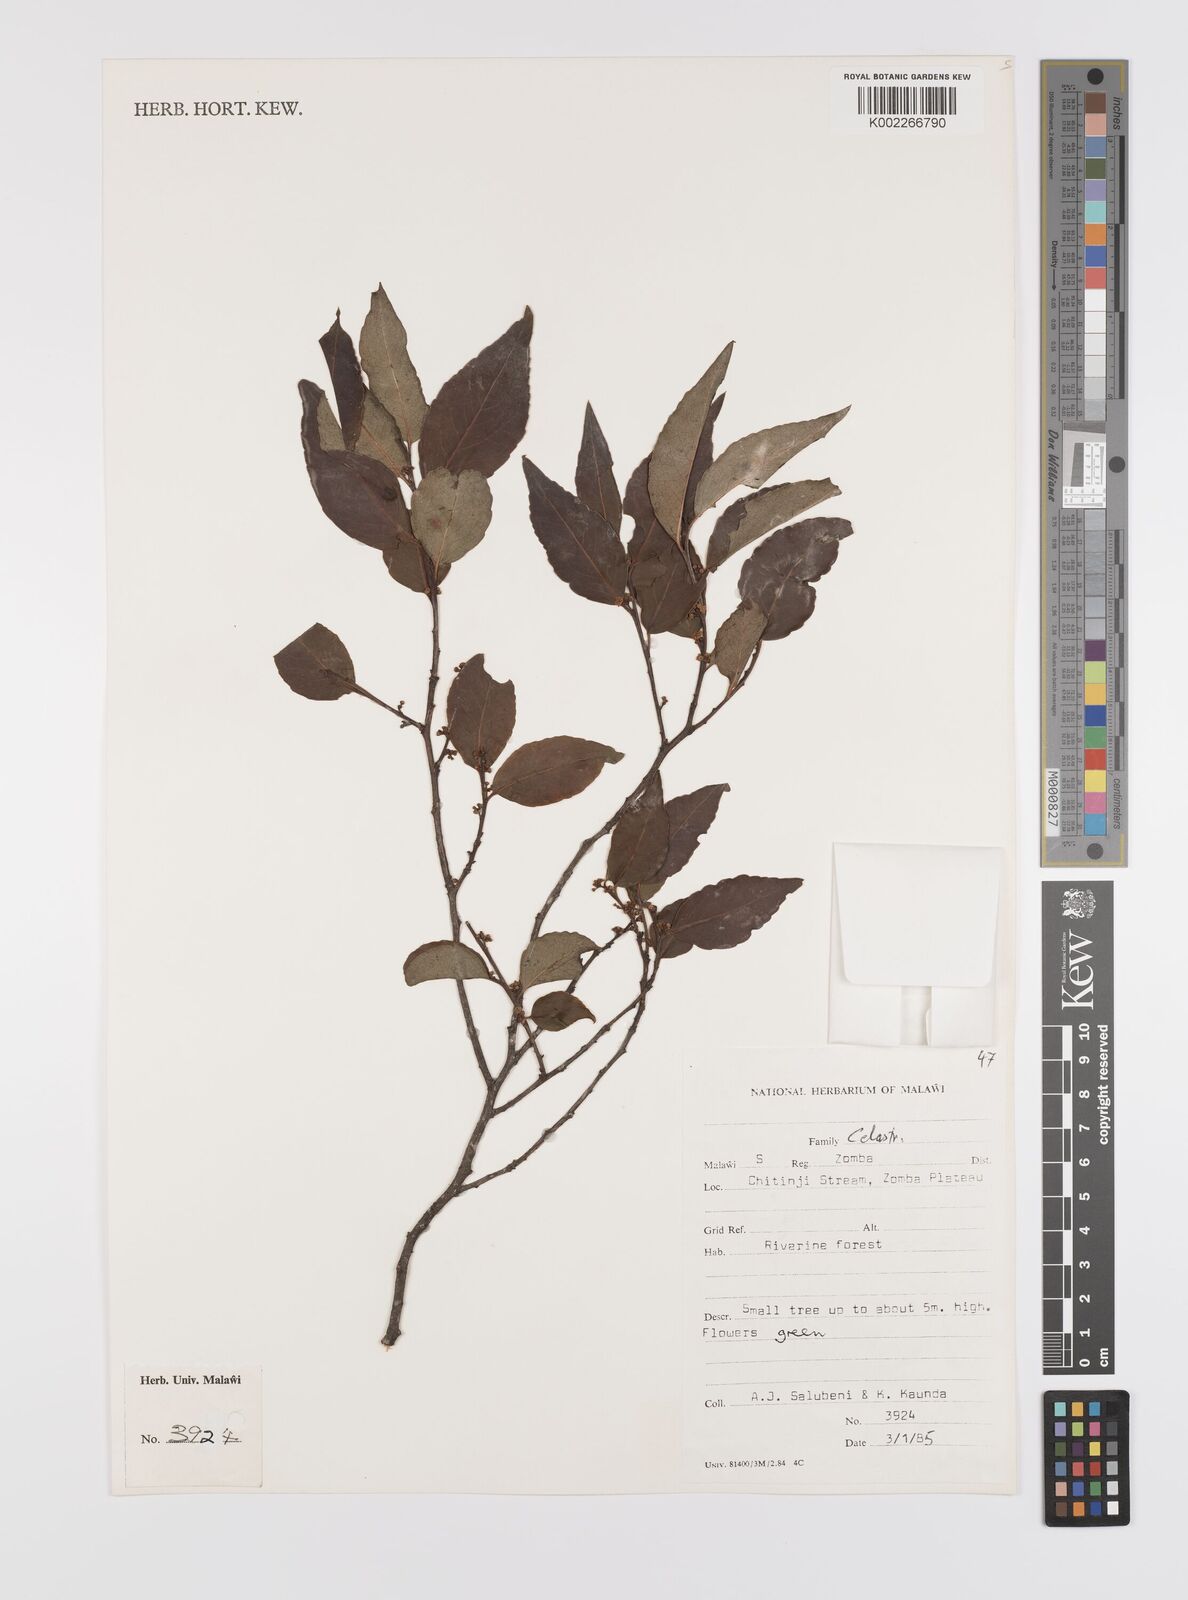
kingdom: Plantae
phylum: Tracheophyta
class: Magnoliopsida
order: Celastrales
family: Celastraceae
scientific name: Celastraceae
